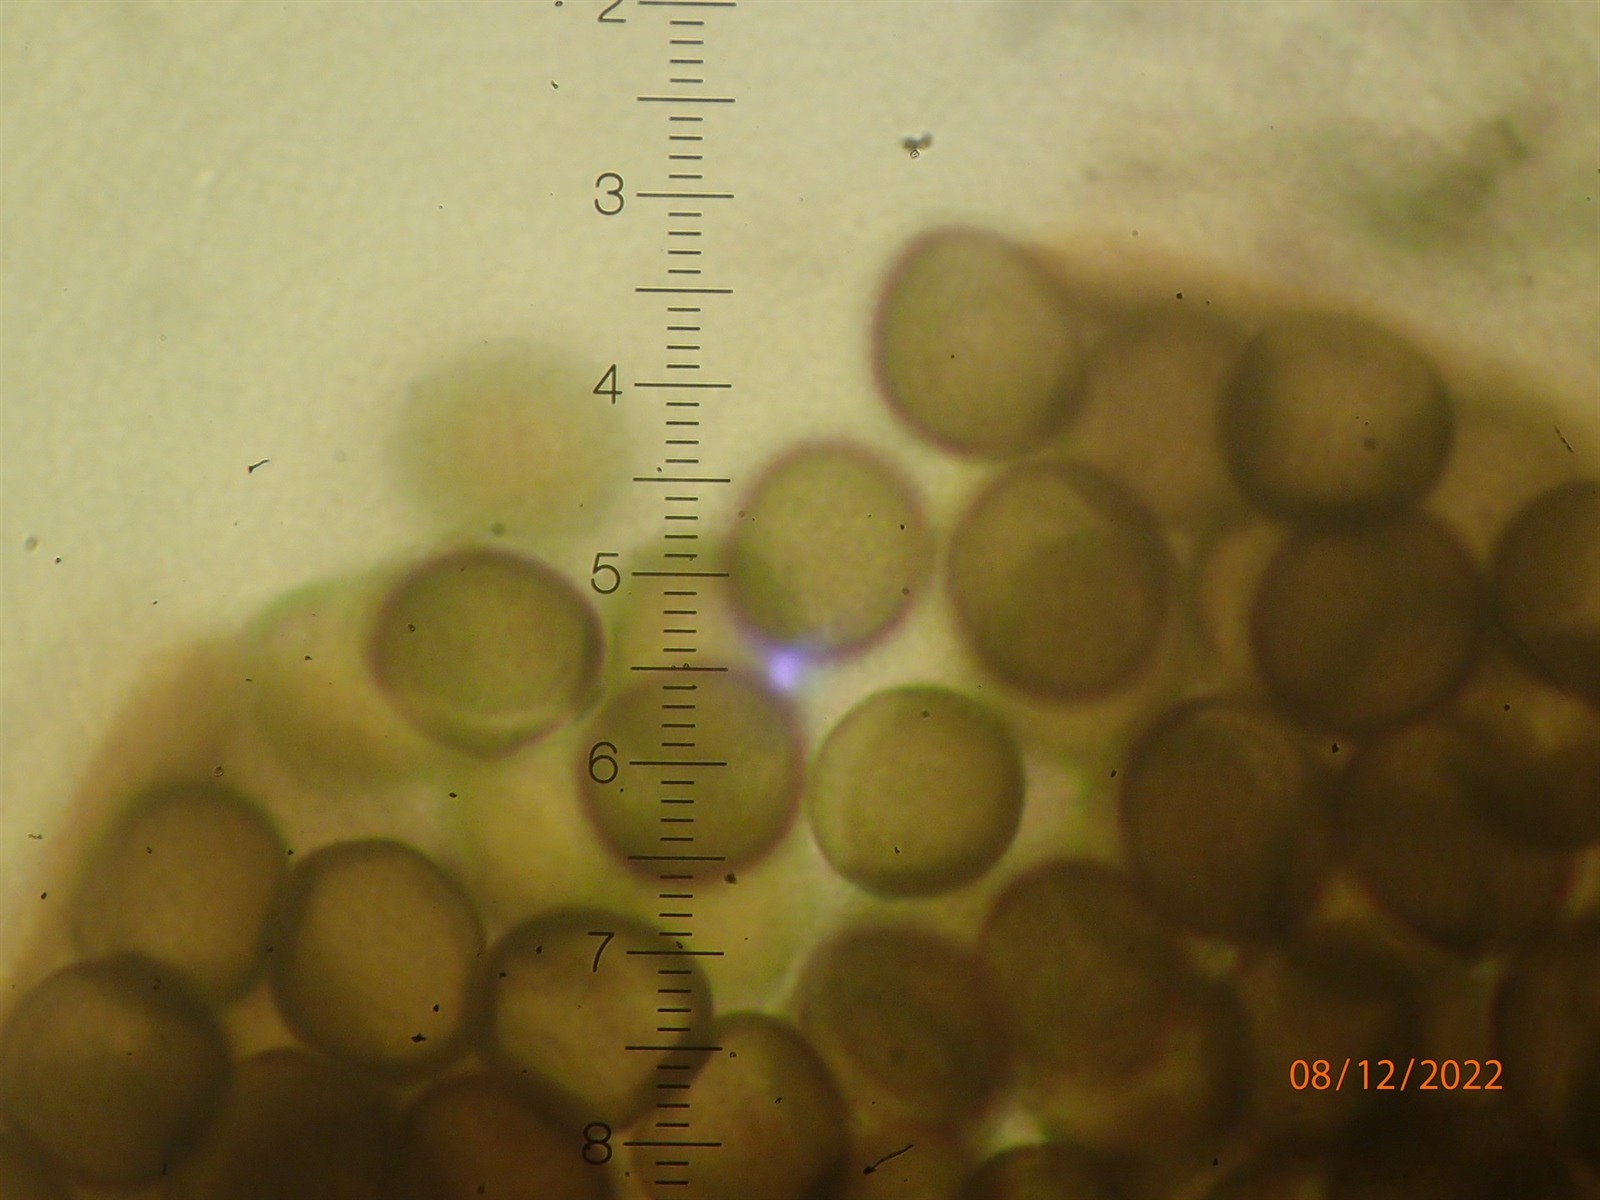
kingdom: Protozoa
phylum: Mycetozoa
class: Myxomycetes
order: Cribrariales
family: Liceaceae
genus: Licea
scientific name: Licea pseudoconica
